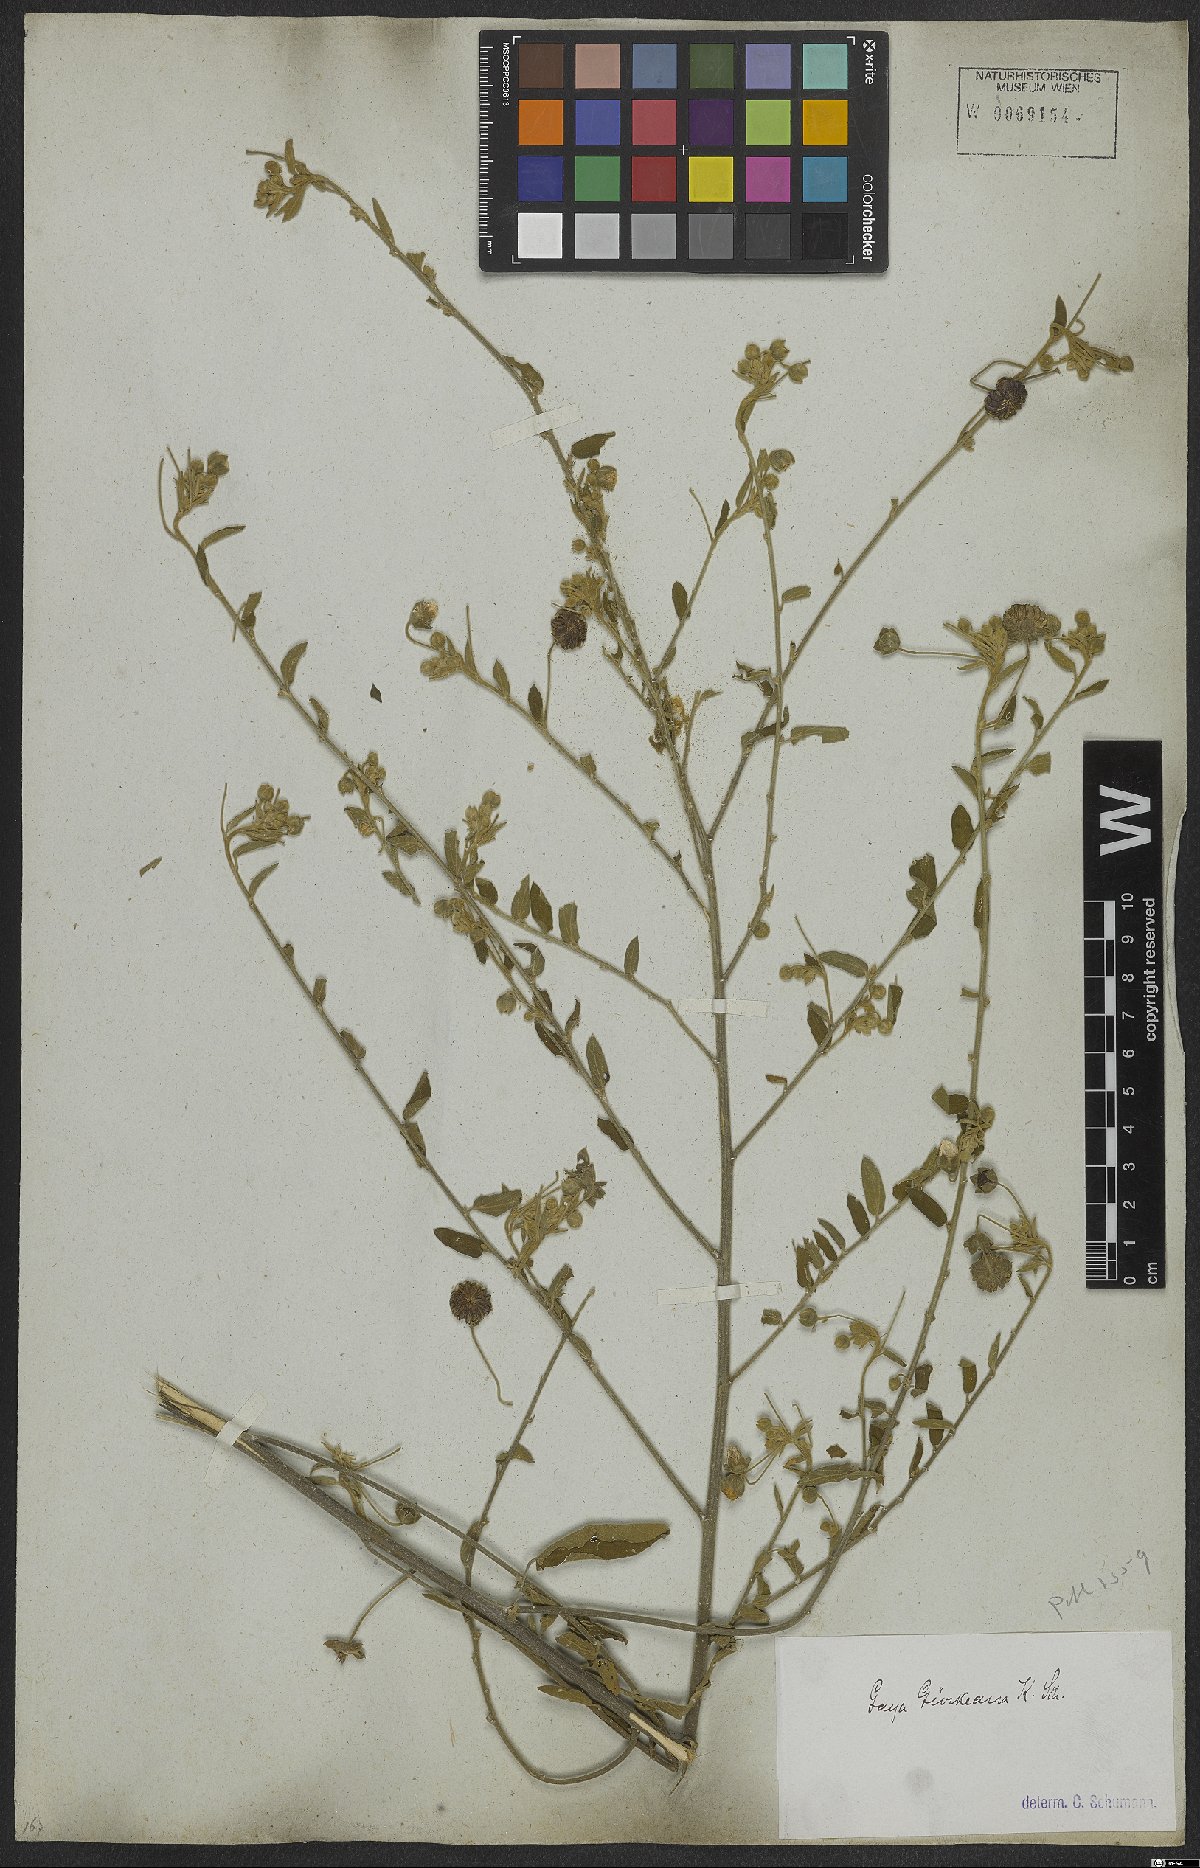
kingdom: Plantae
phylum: Tracheophyta
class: Magnoliopsida
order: Malvales
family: Malvaceae
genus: Gaya
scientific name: Gaya guerkeana
